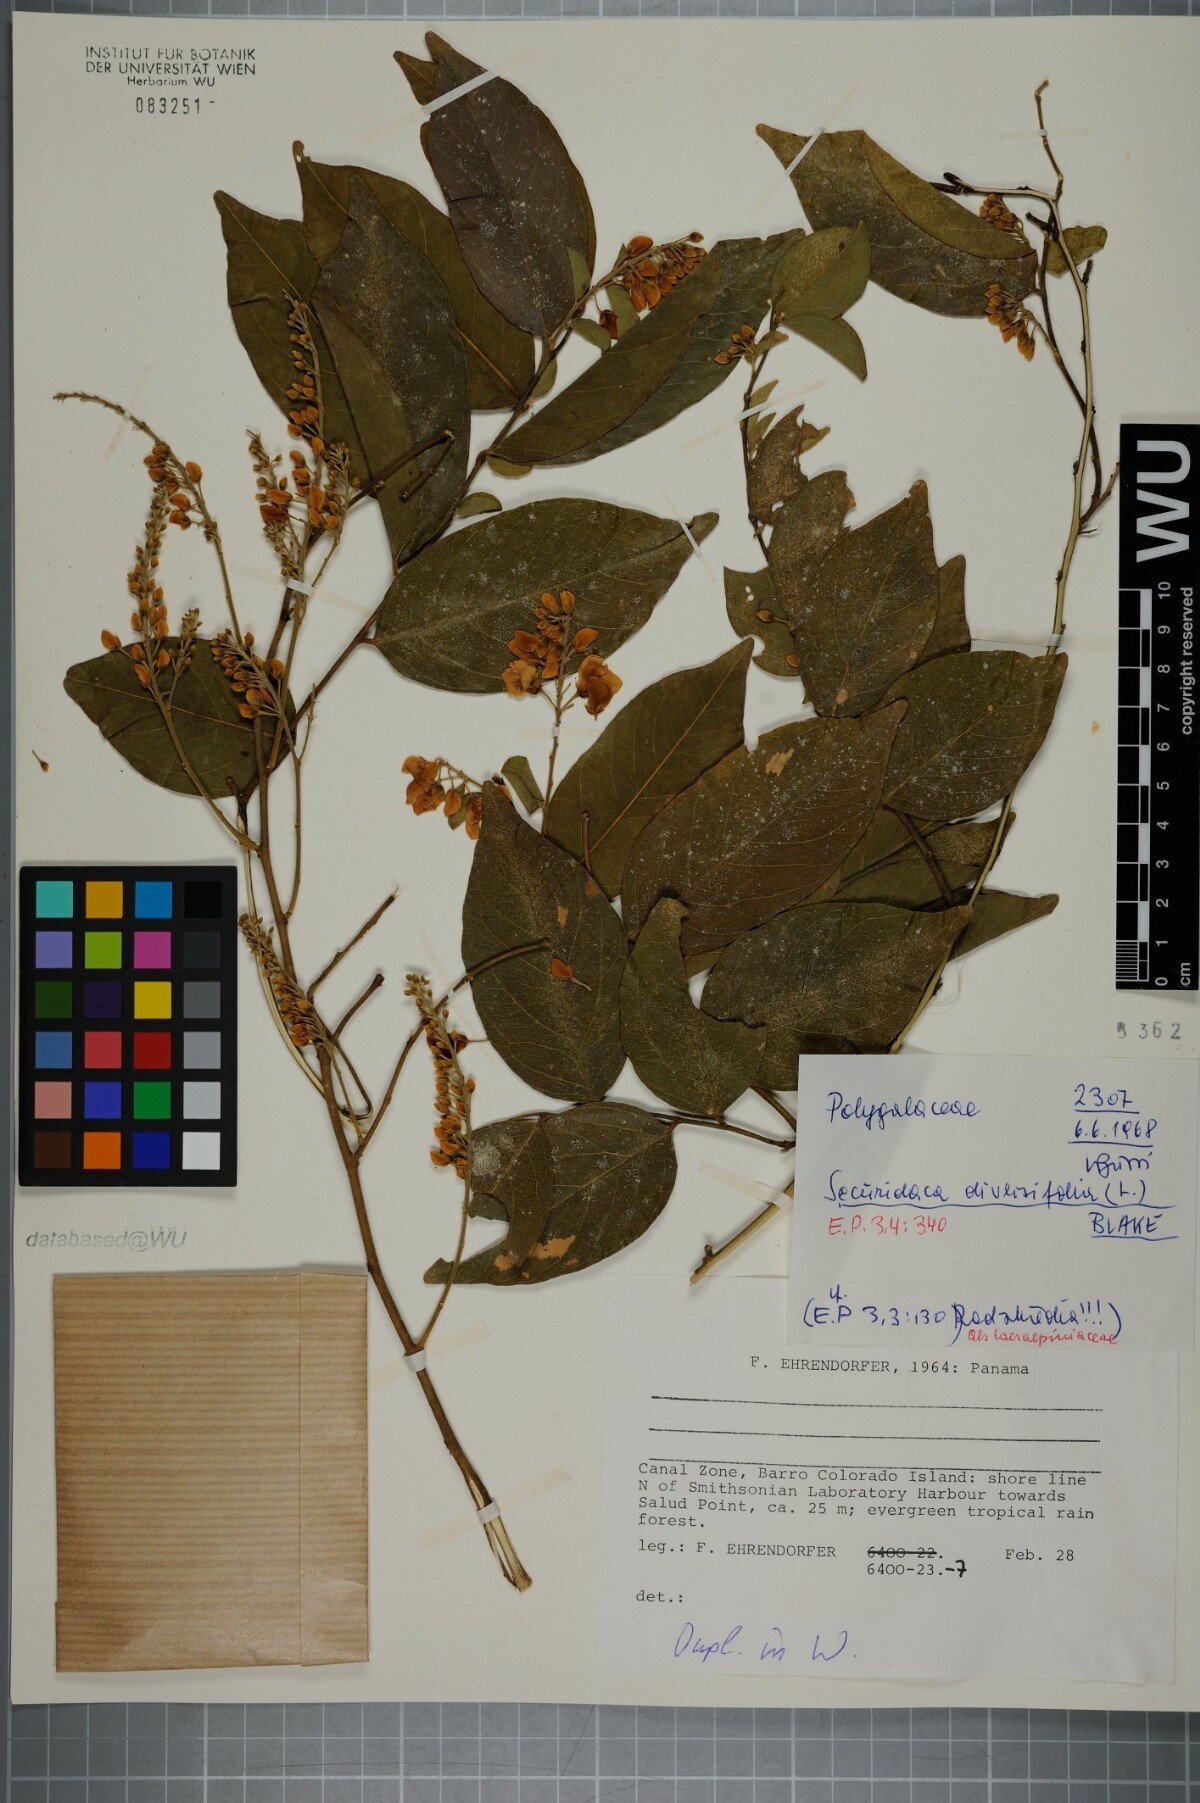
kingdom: Plantae
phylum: Tracheophyta
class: Magnoliopsida
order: Fabales
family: Polygalaceae
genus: Securidaca
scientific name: Securidaca diversifolia
